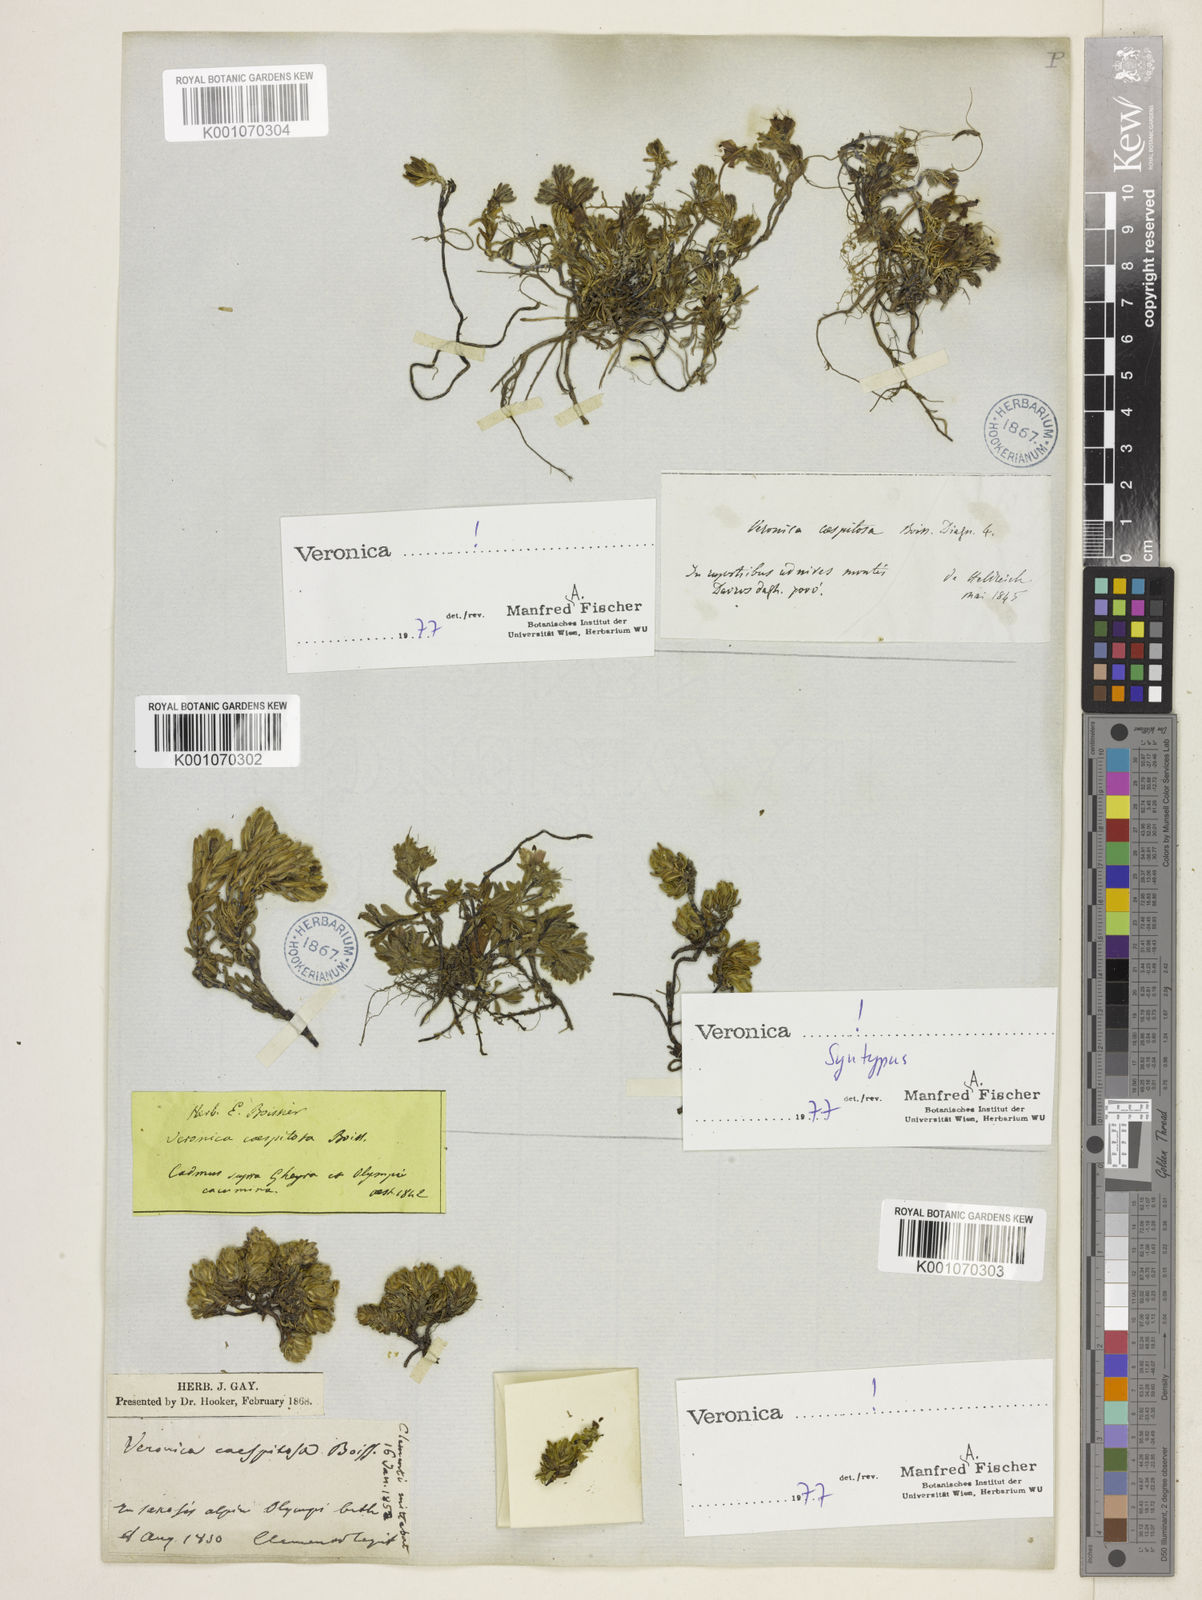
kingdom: Plantae
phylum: Tracheophyta
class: Magnoliopsida
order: Lamiales
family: Plantaginaceae
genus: Veronica
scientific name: Veronica caespitosa
